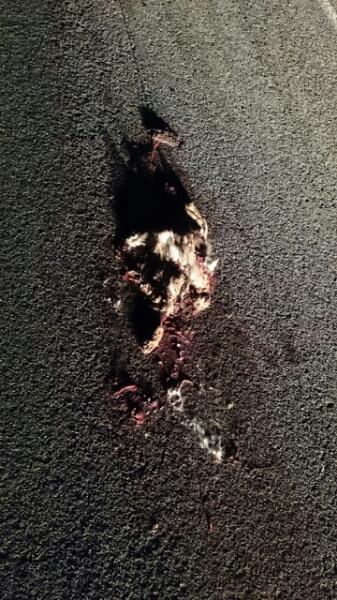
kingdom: Animalia
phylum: Chordata
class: Mammalia
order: Lagomorpha
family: Leporidae
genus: Lepus
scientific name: Lepus europaeus
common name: European hare
